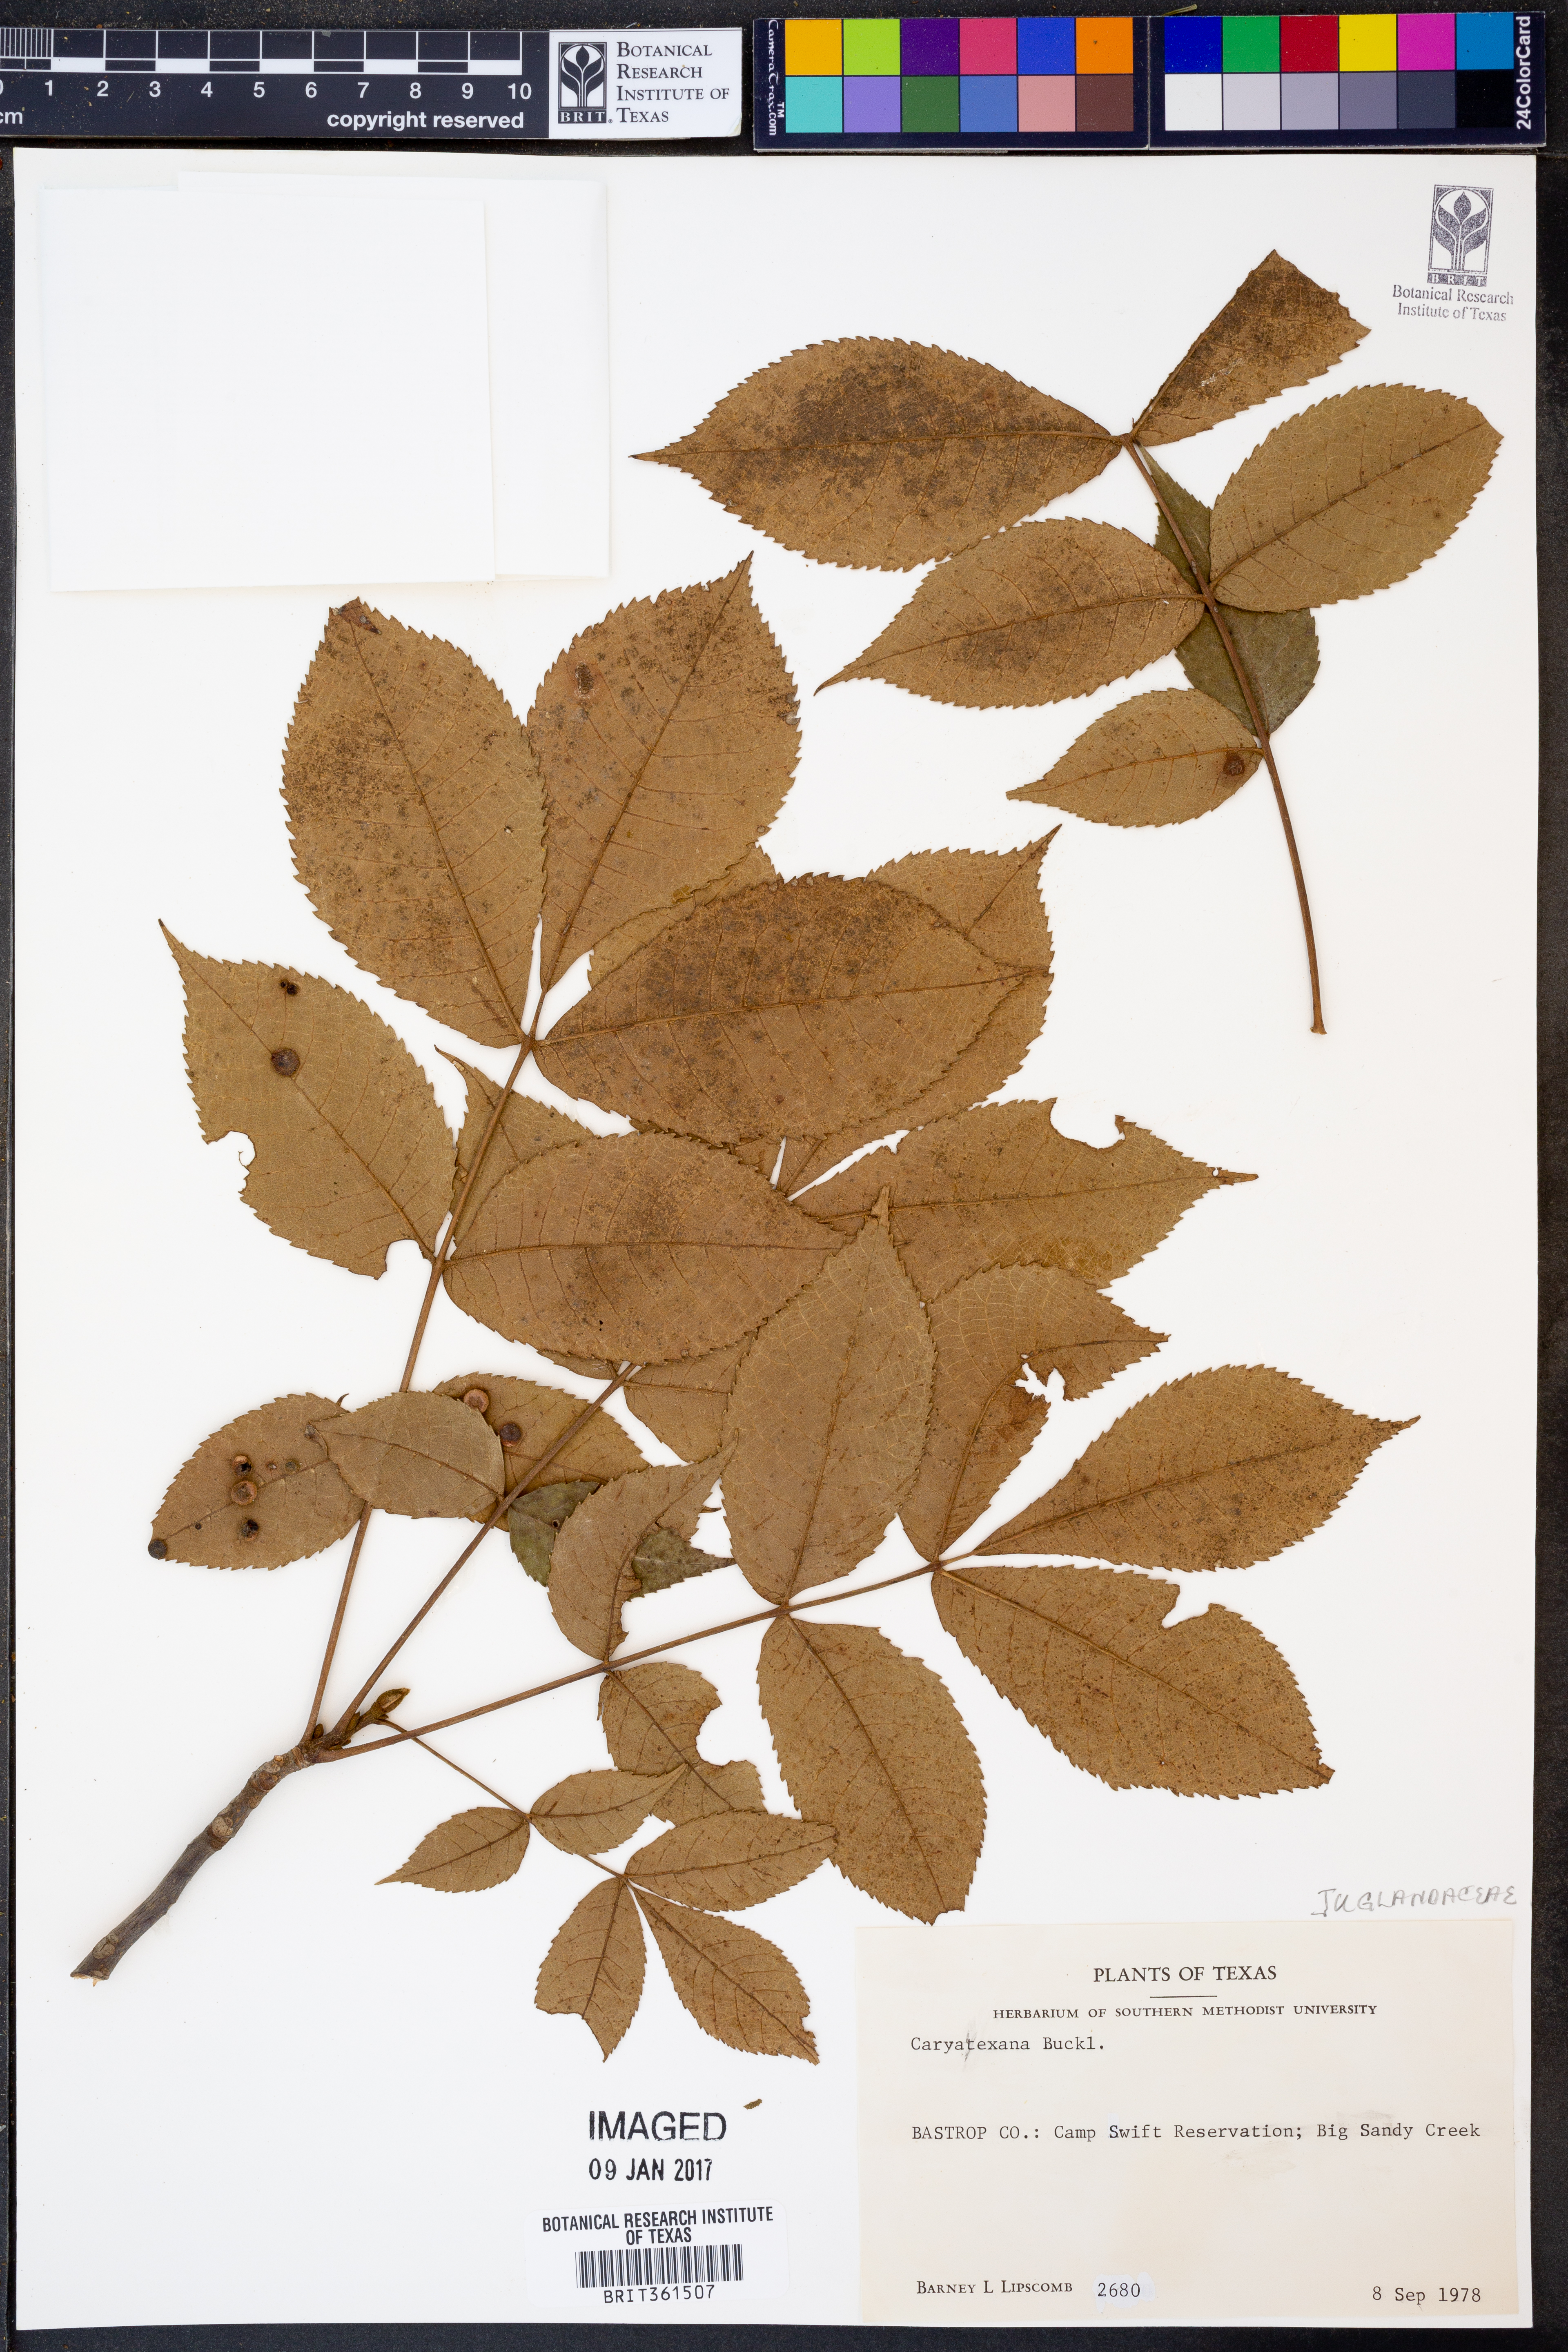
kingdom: Plantae
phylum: Tracheophyta
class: Magnoliopsida
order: Fagales
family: Juglandaceae
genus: Carya
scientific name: Carya texana
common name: Black hickory
